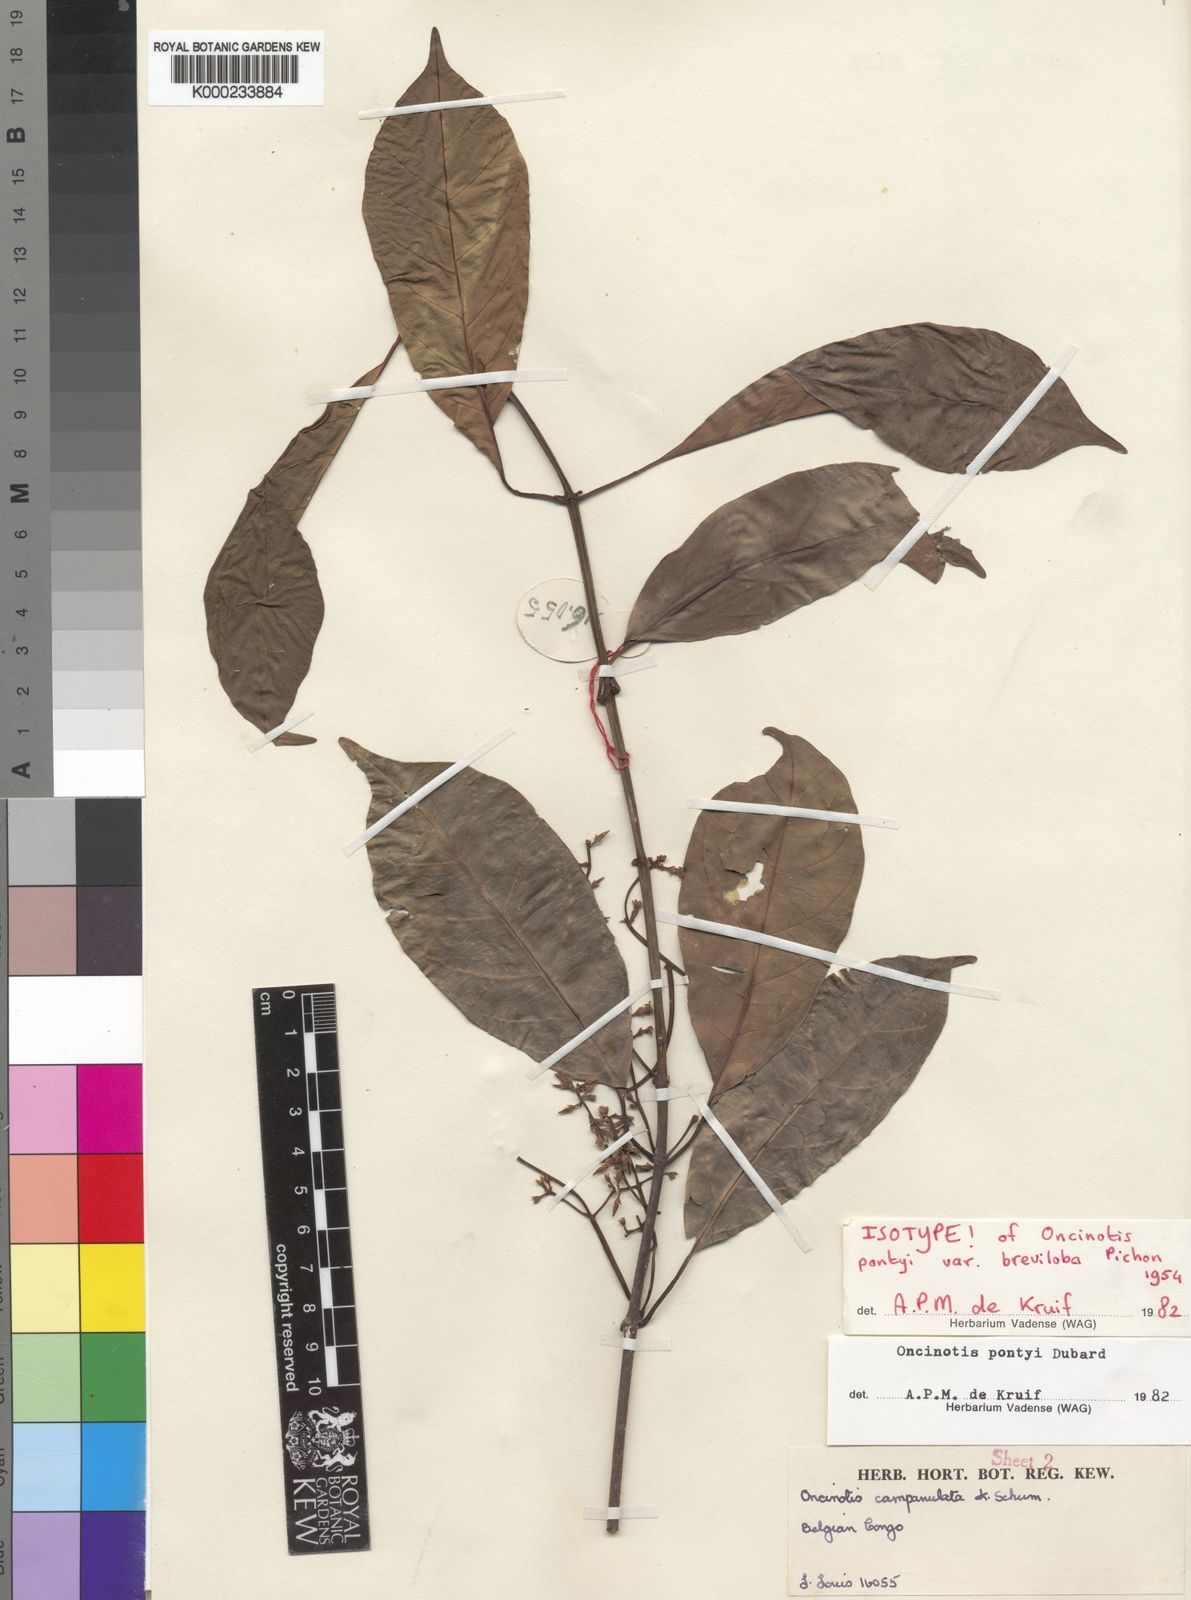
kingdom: Plantae
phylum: Tracheophyta
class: Magnoliopsida
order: Gentianales
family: Apocynaceae
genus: Oncinotis
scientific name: Oncinotis pontyi
